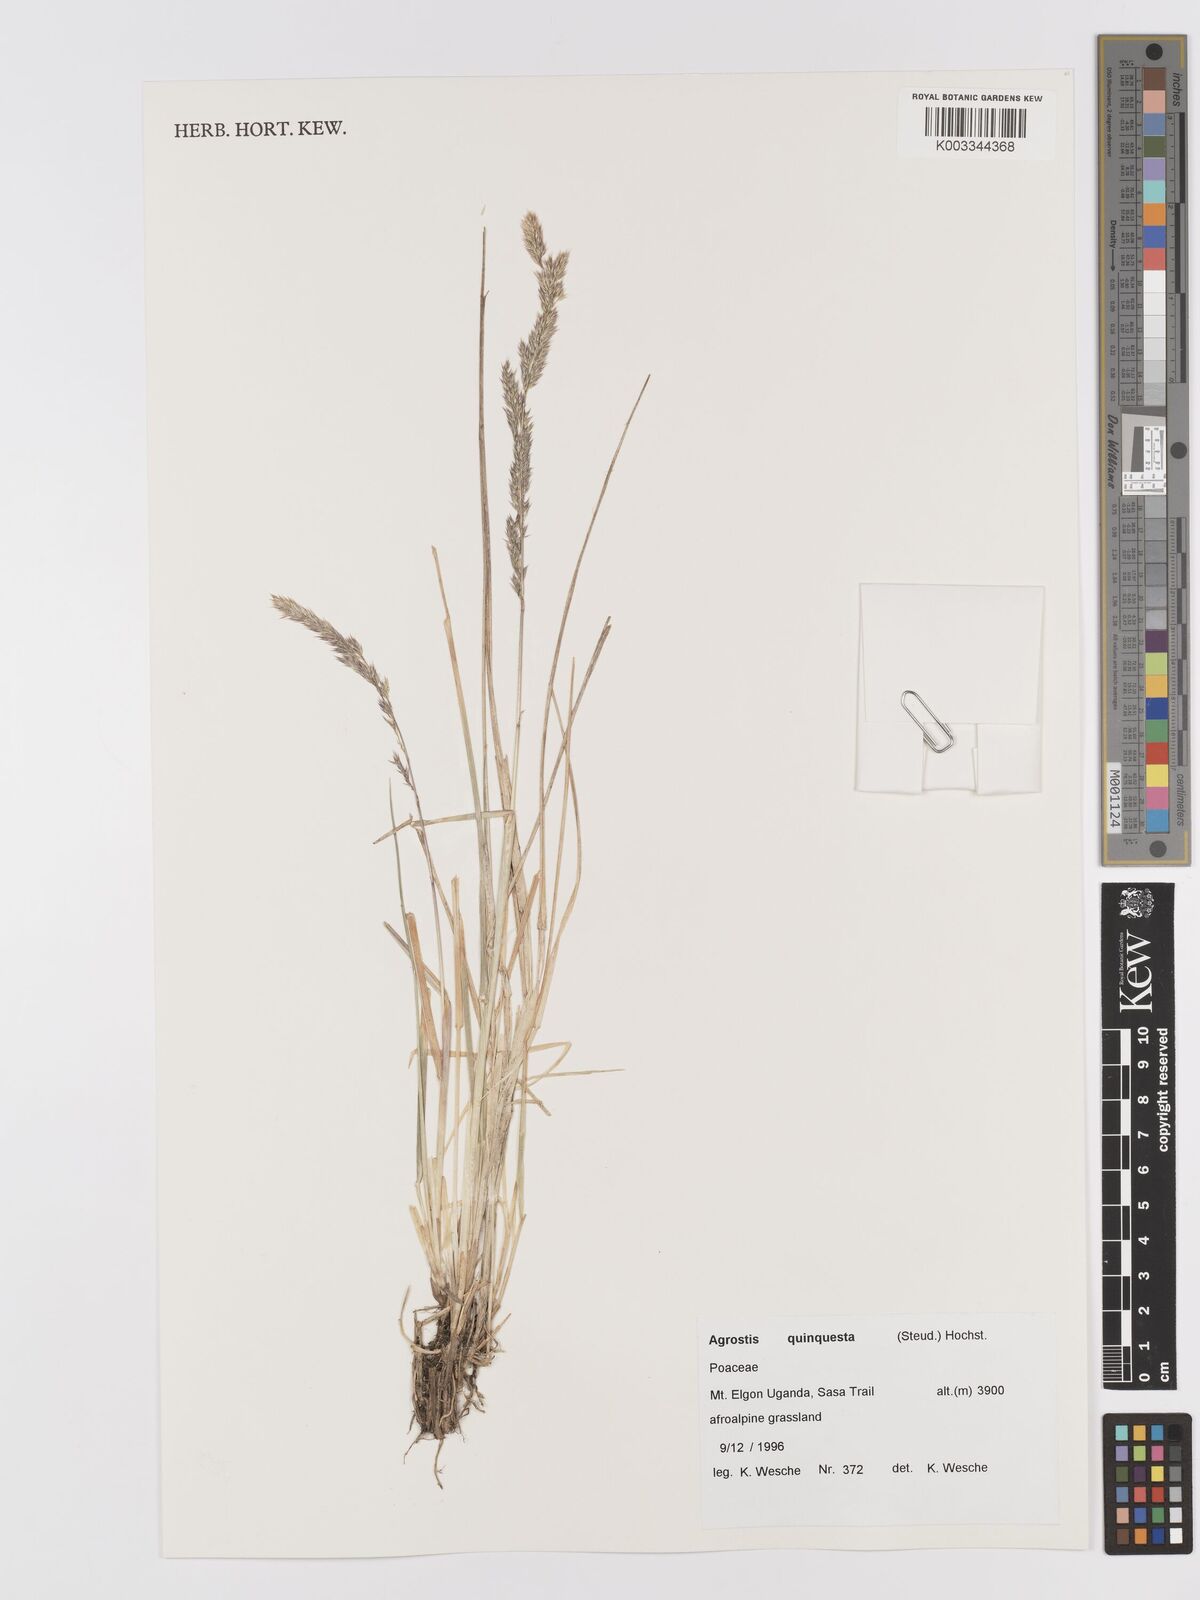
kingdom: Plantae
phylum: Tracheophyta
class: Liliopsida
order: Poales
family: Poaceae
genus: Agrostis
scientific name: Agrostis quinqueseta
